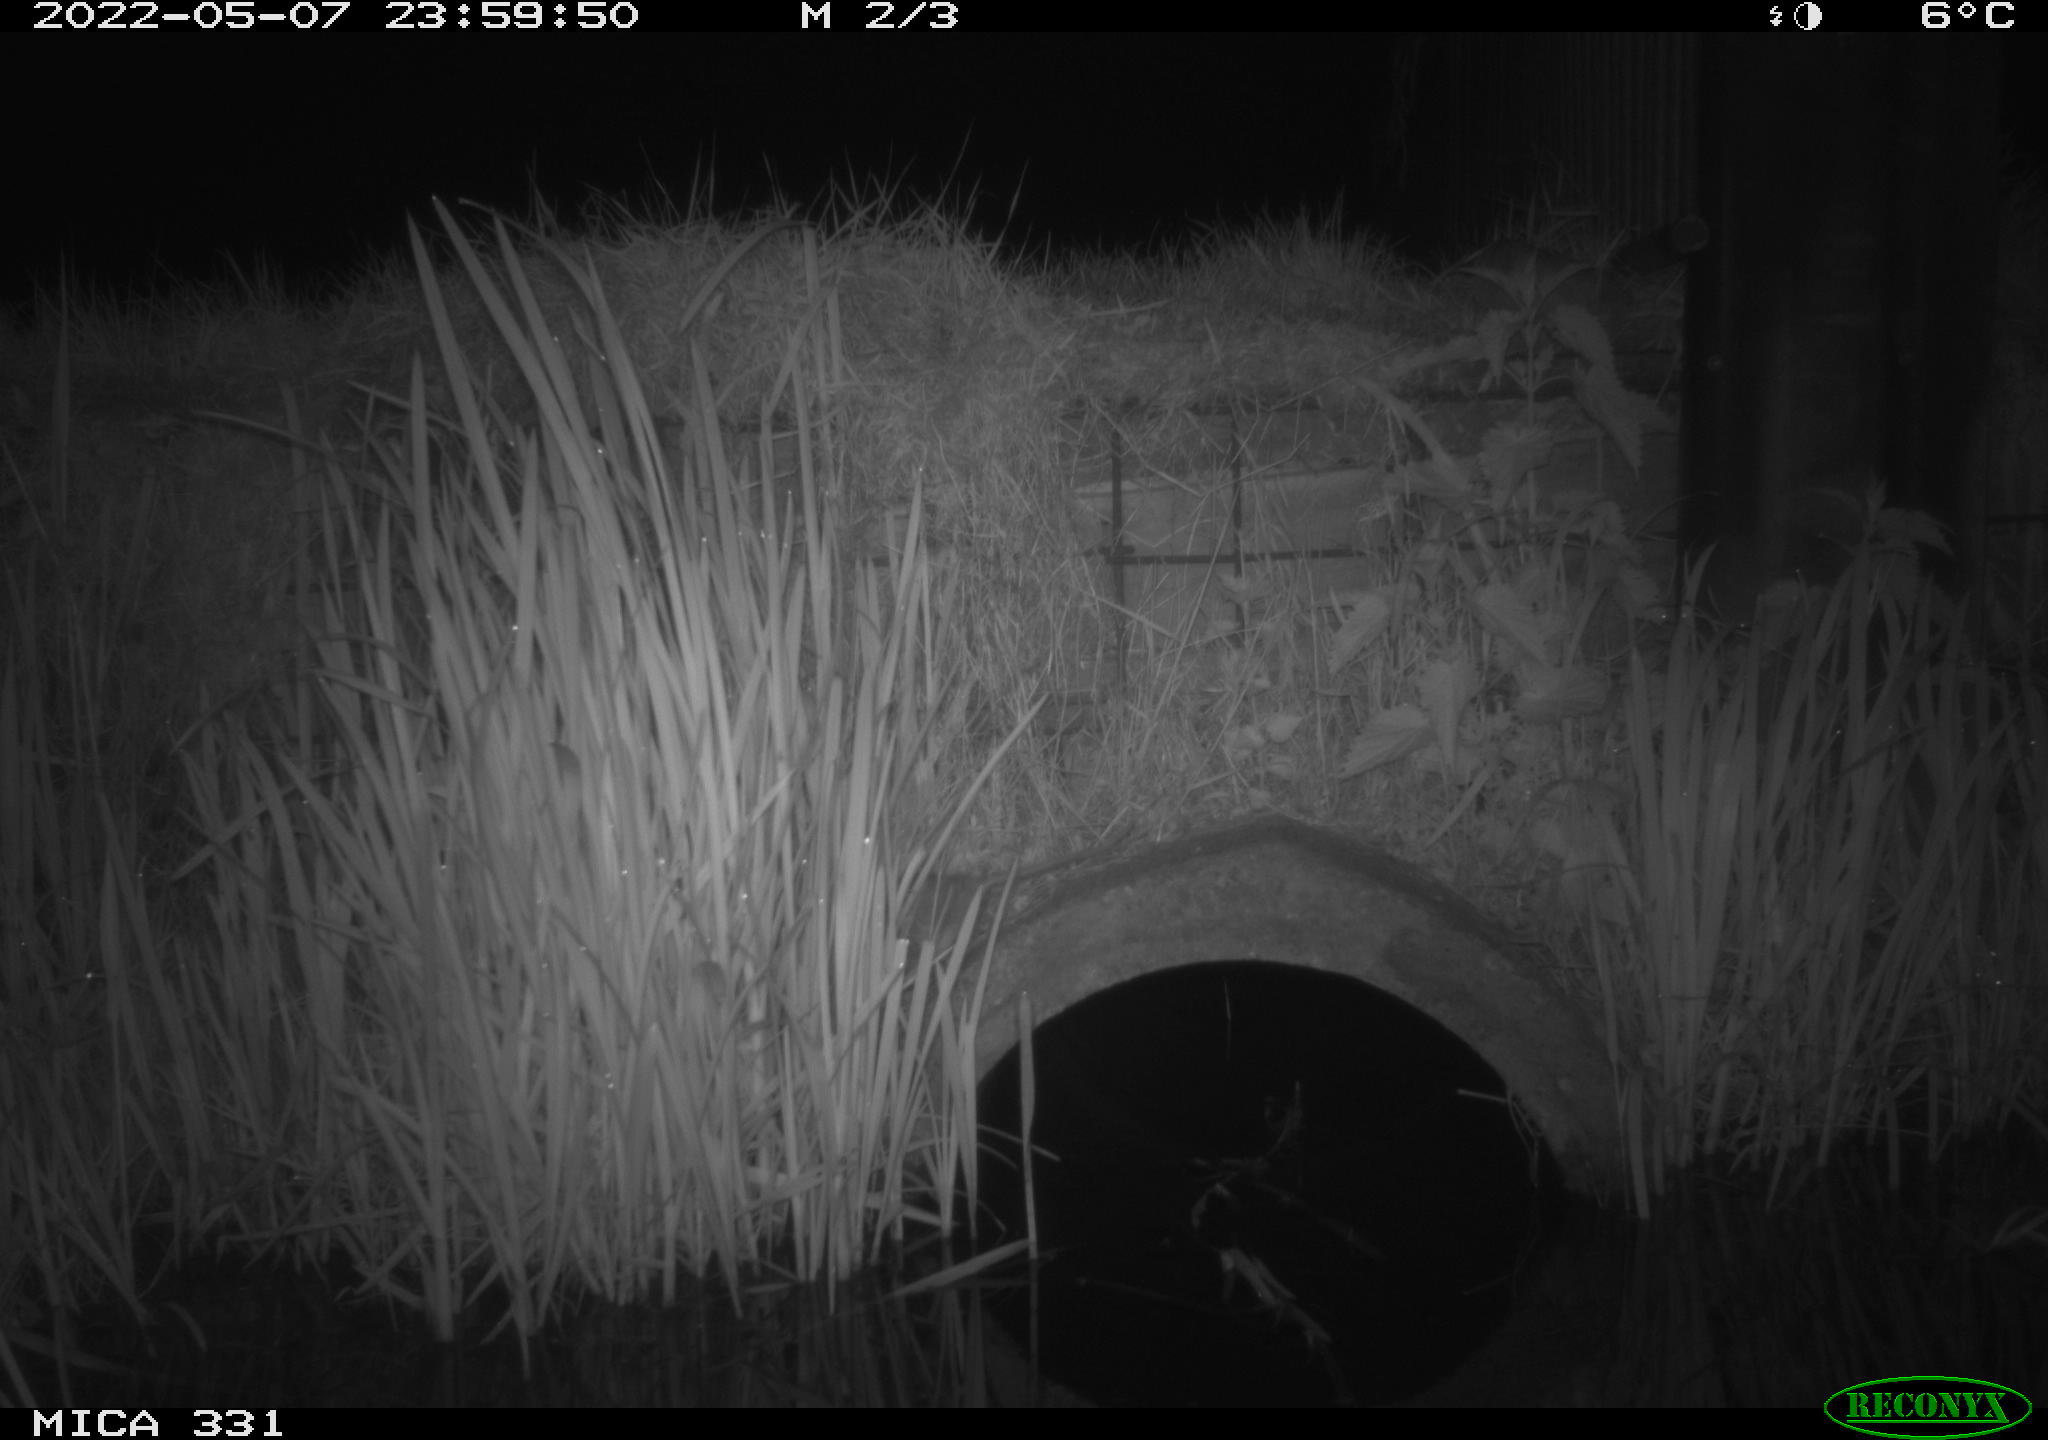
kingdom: Animalia
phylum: Chordata
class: Mammalia
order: Rodentia
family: Muridae
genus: Rattus
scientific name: Rattus norvegicus
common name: Brown rat
